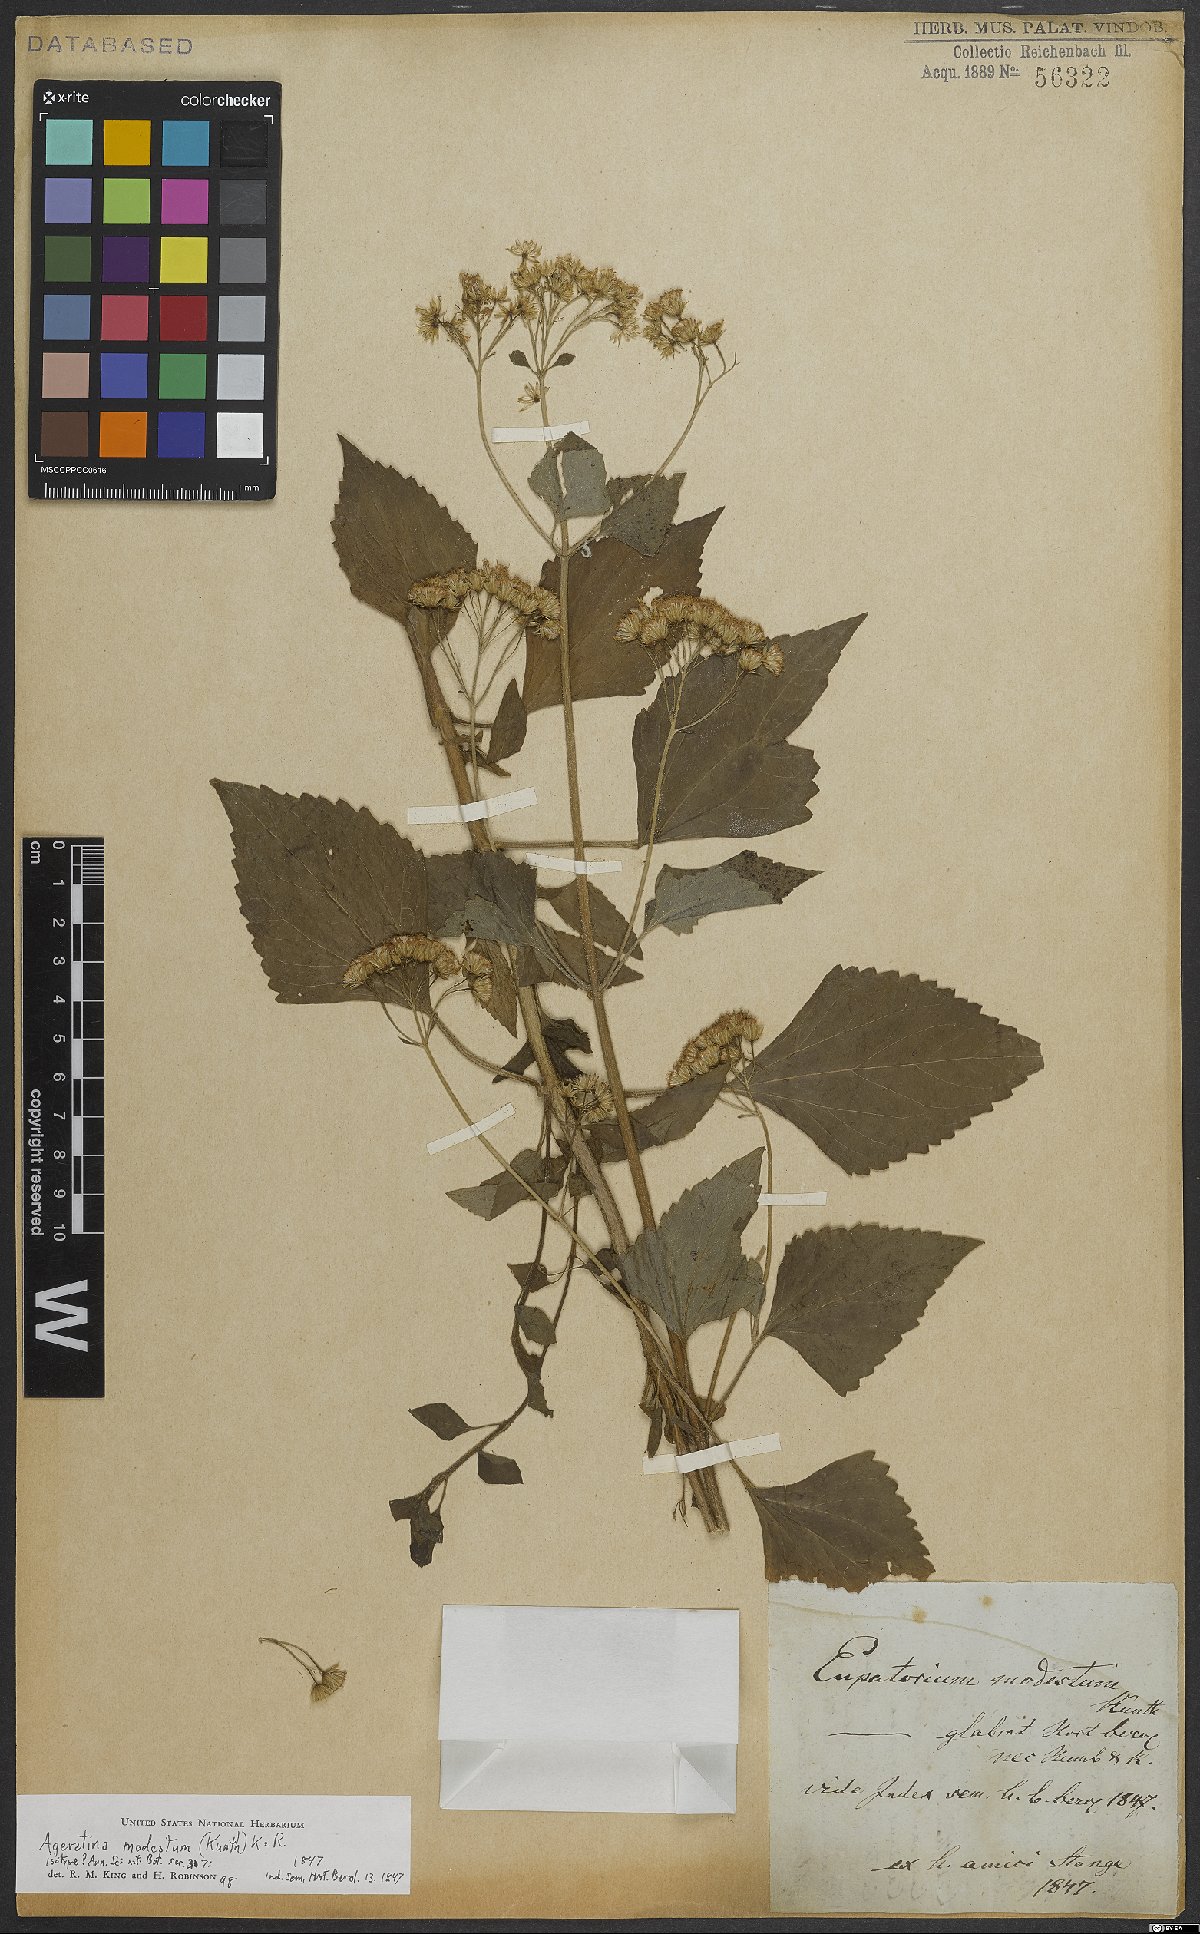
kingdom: Plantae
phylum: Tracheophyta
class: Magnoliopsida
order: Asterales
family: Asteraceae
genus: Ageratina
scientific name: Ageratina glabrata
